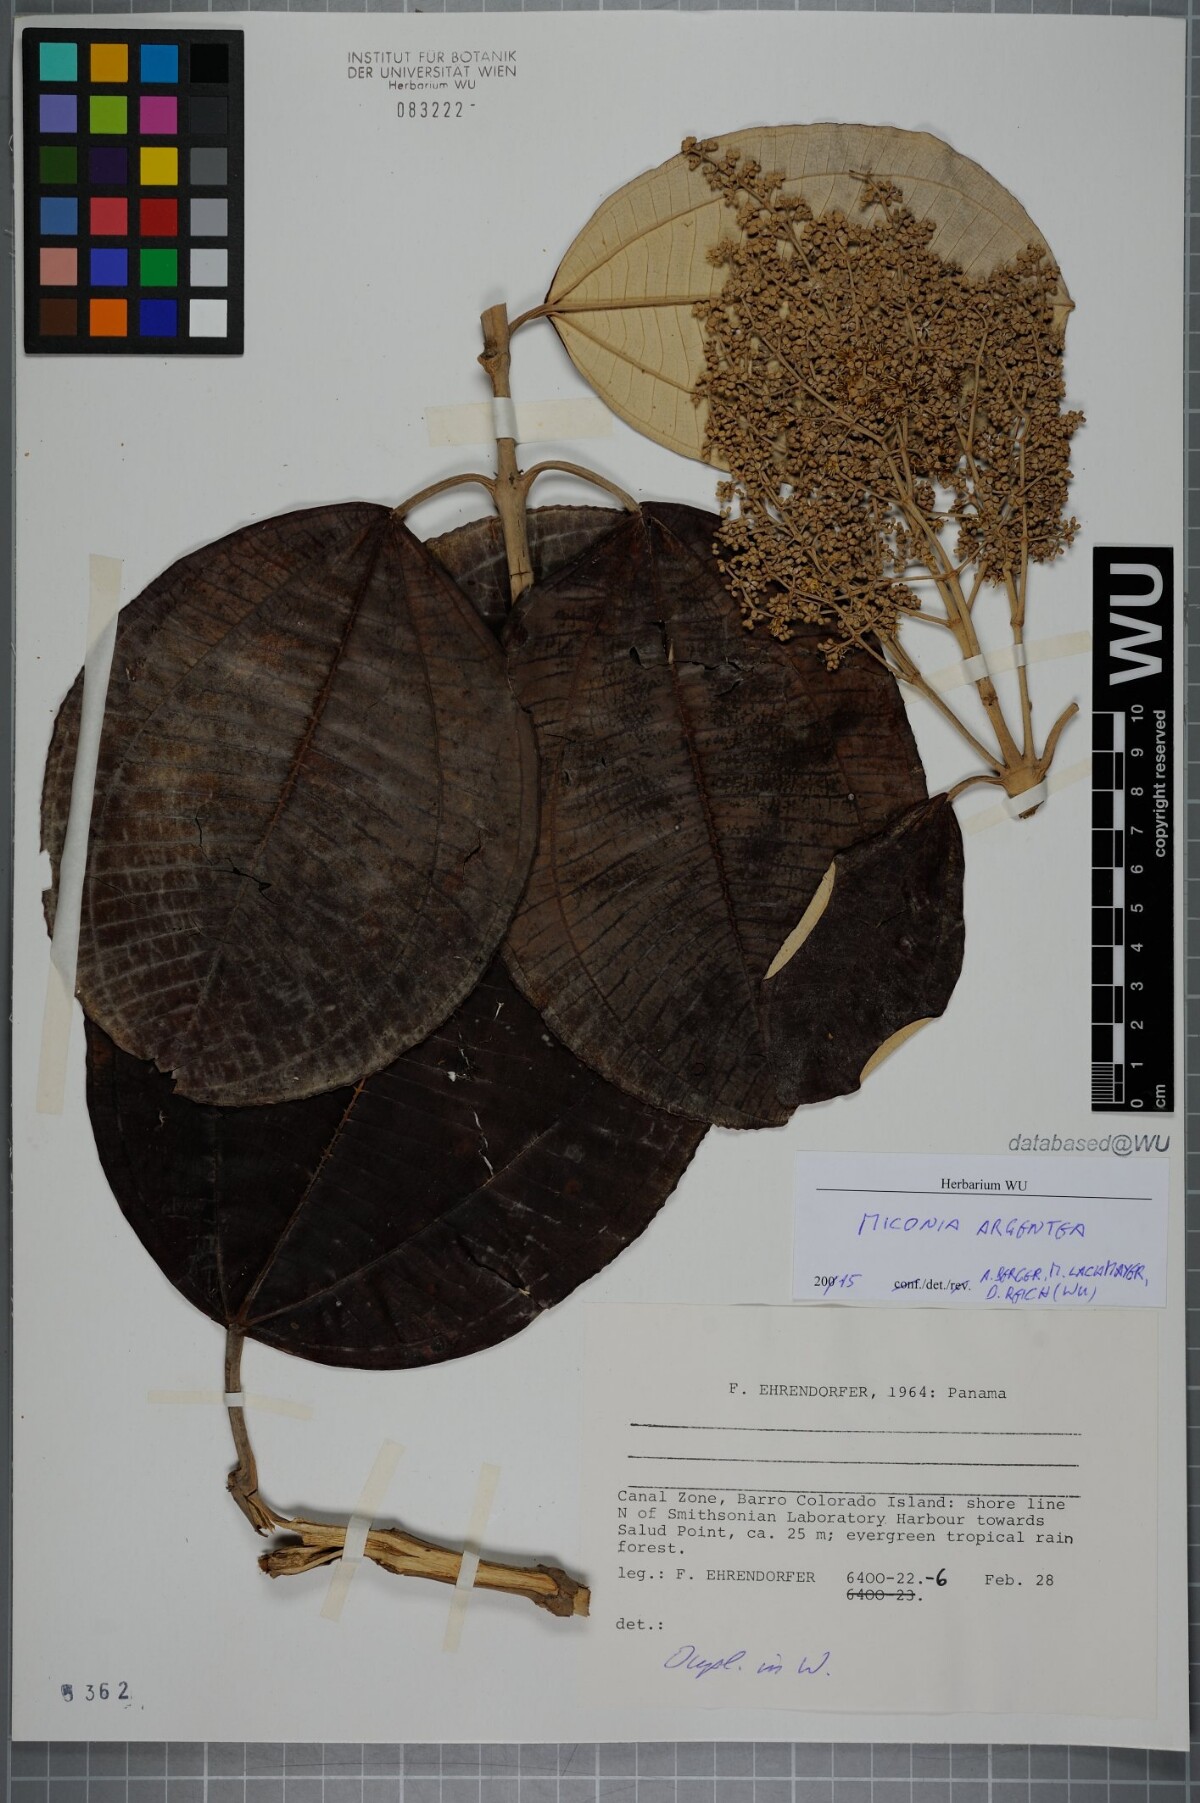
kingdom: Plantae
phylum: Tracheophyta
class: Magnoliopsida
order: Myrtales
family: Melastomataceae
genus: Miconia
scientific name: Miconia argentea
